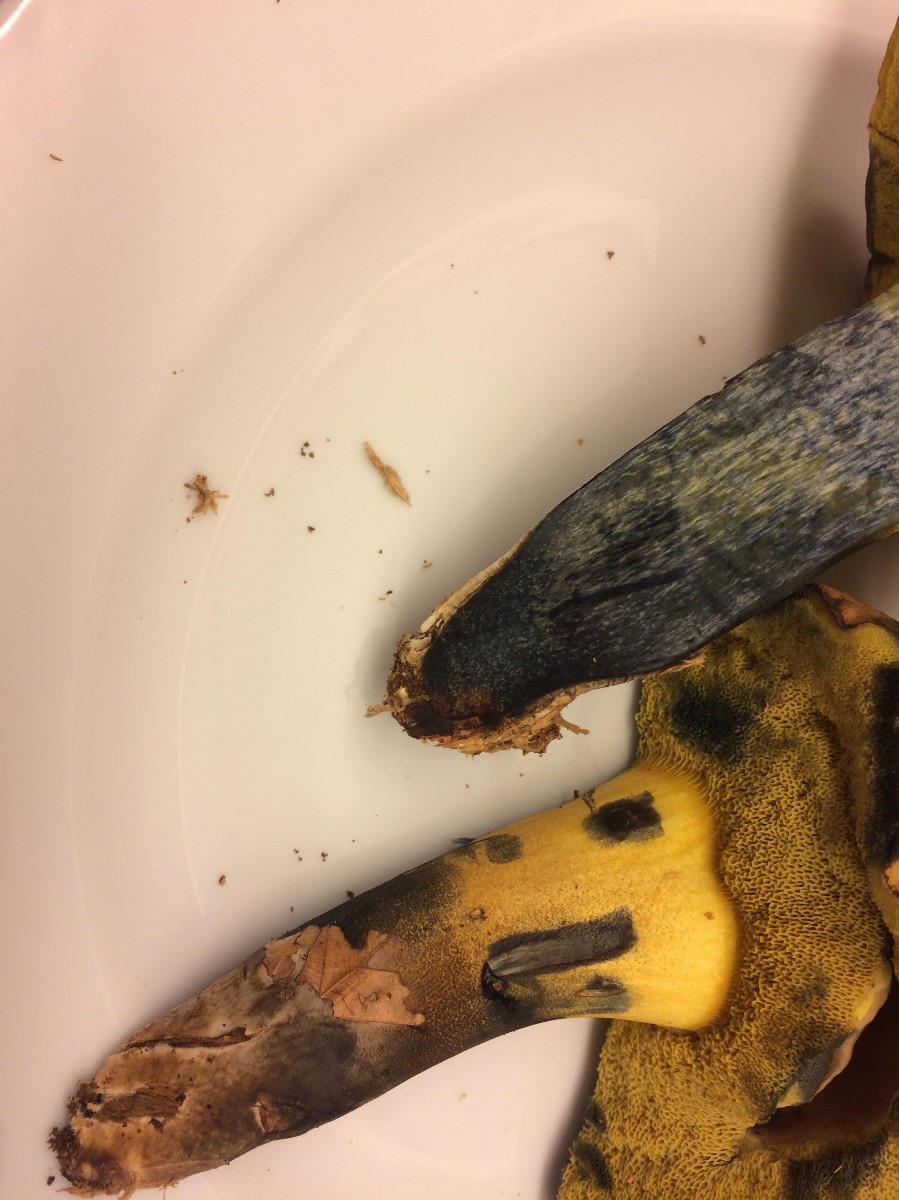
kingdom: Fungi
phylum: Basidiomycota
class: Agaricomycetes
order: Boletales
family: Boletaceae
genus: Cyanoboletus
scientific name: Cyanoboletus pulverulentus
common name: sortblånende rørhat
